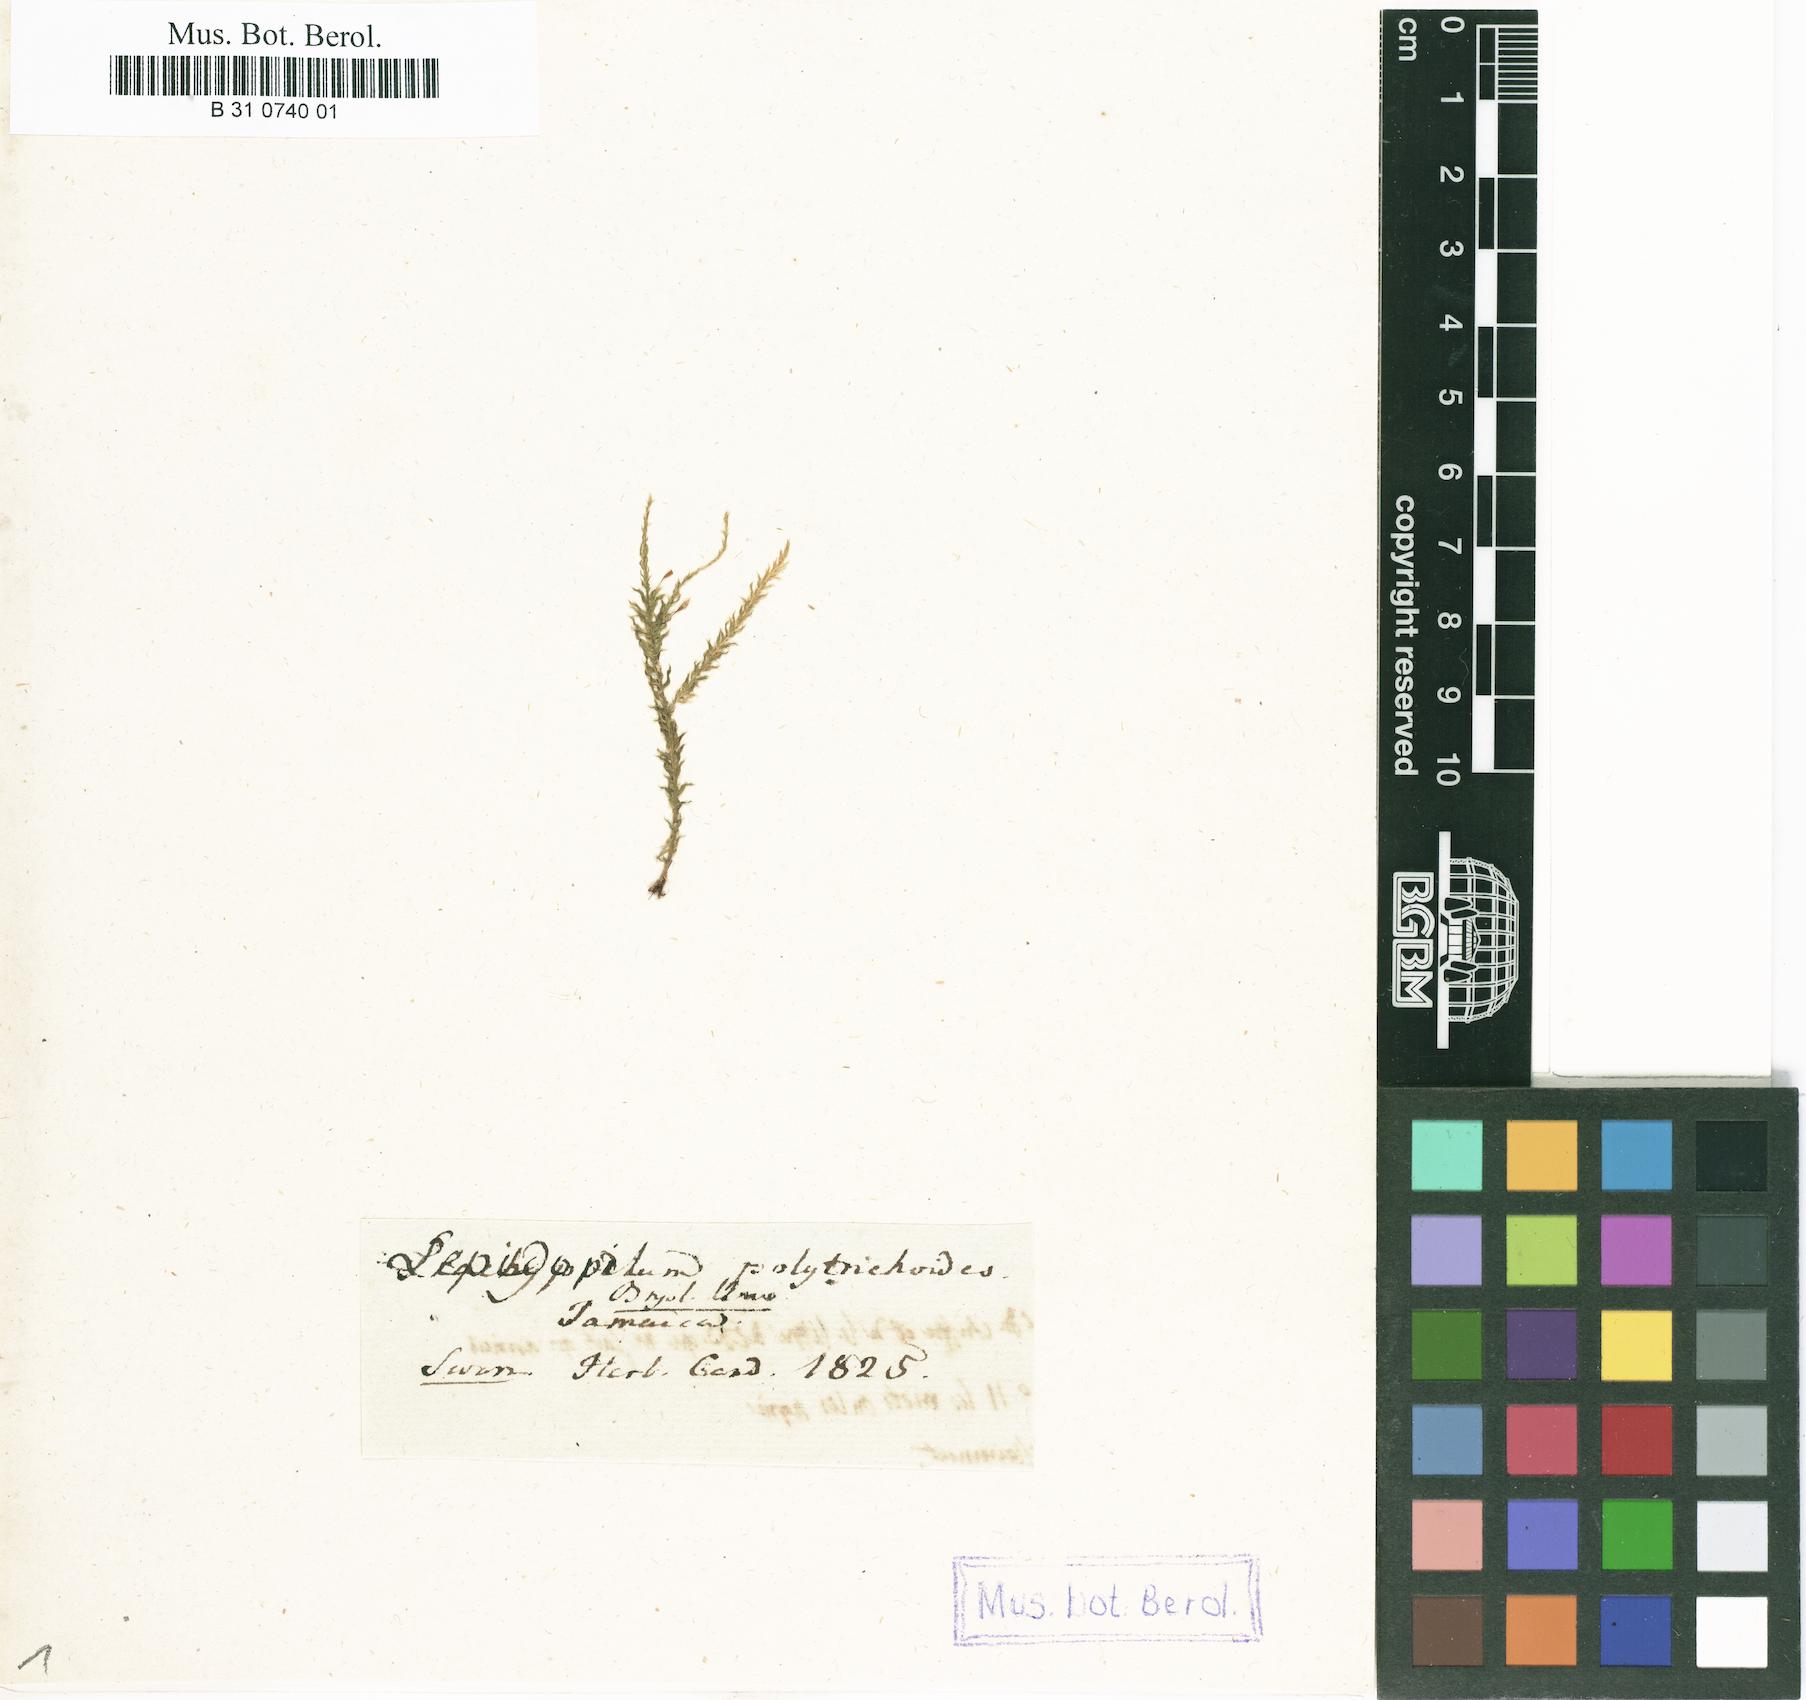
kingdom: Plantae
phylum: Bryophyta
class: Bryopsida
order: Hookeriales
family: Pilotrichaceae
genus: Lepidopilum
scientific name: Lepidopilum polytrichoides
